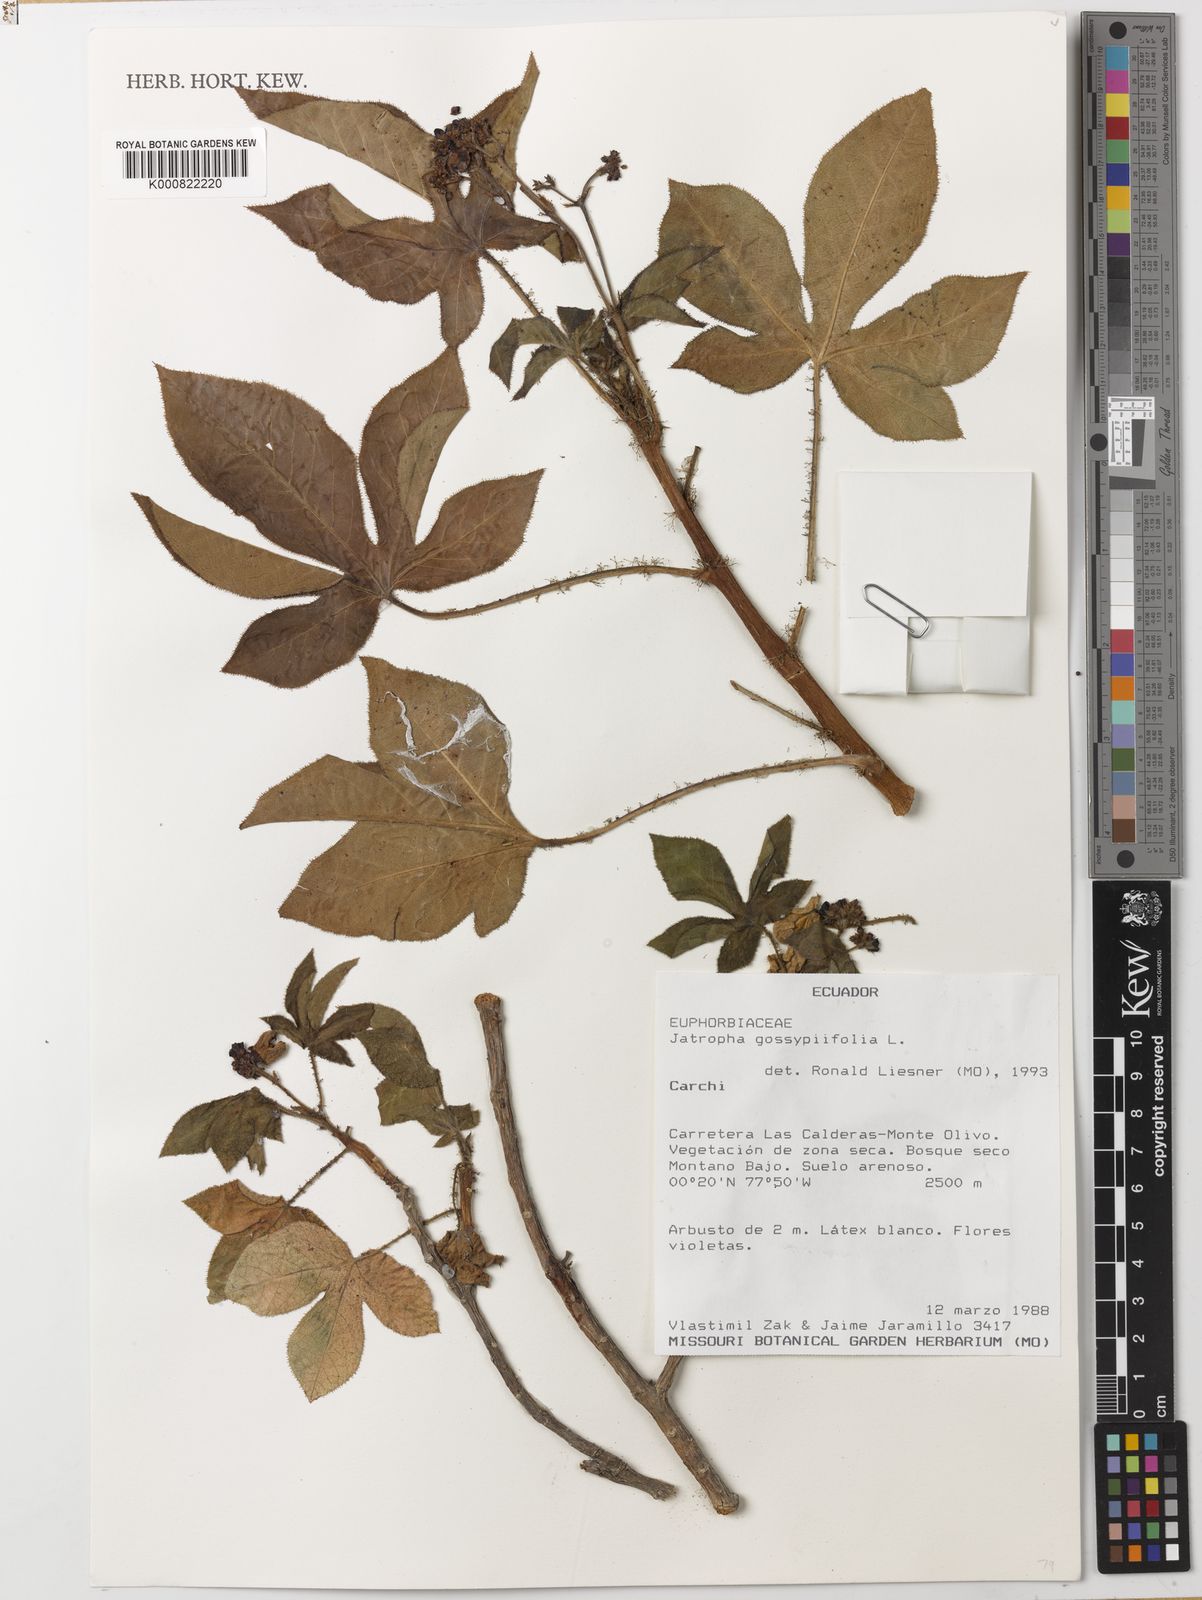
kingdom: Plantae
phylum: Tracheophyta
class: Magnoliopsida
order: Malpighiales
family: Euphorbiaceae
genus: Jatropha
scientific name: Jatropha gossypiifolia
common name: Bellyache bush
